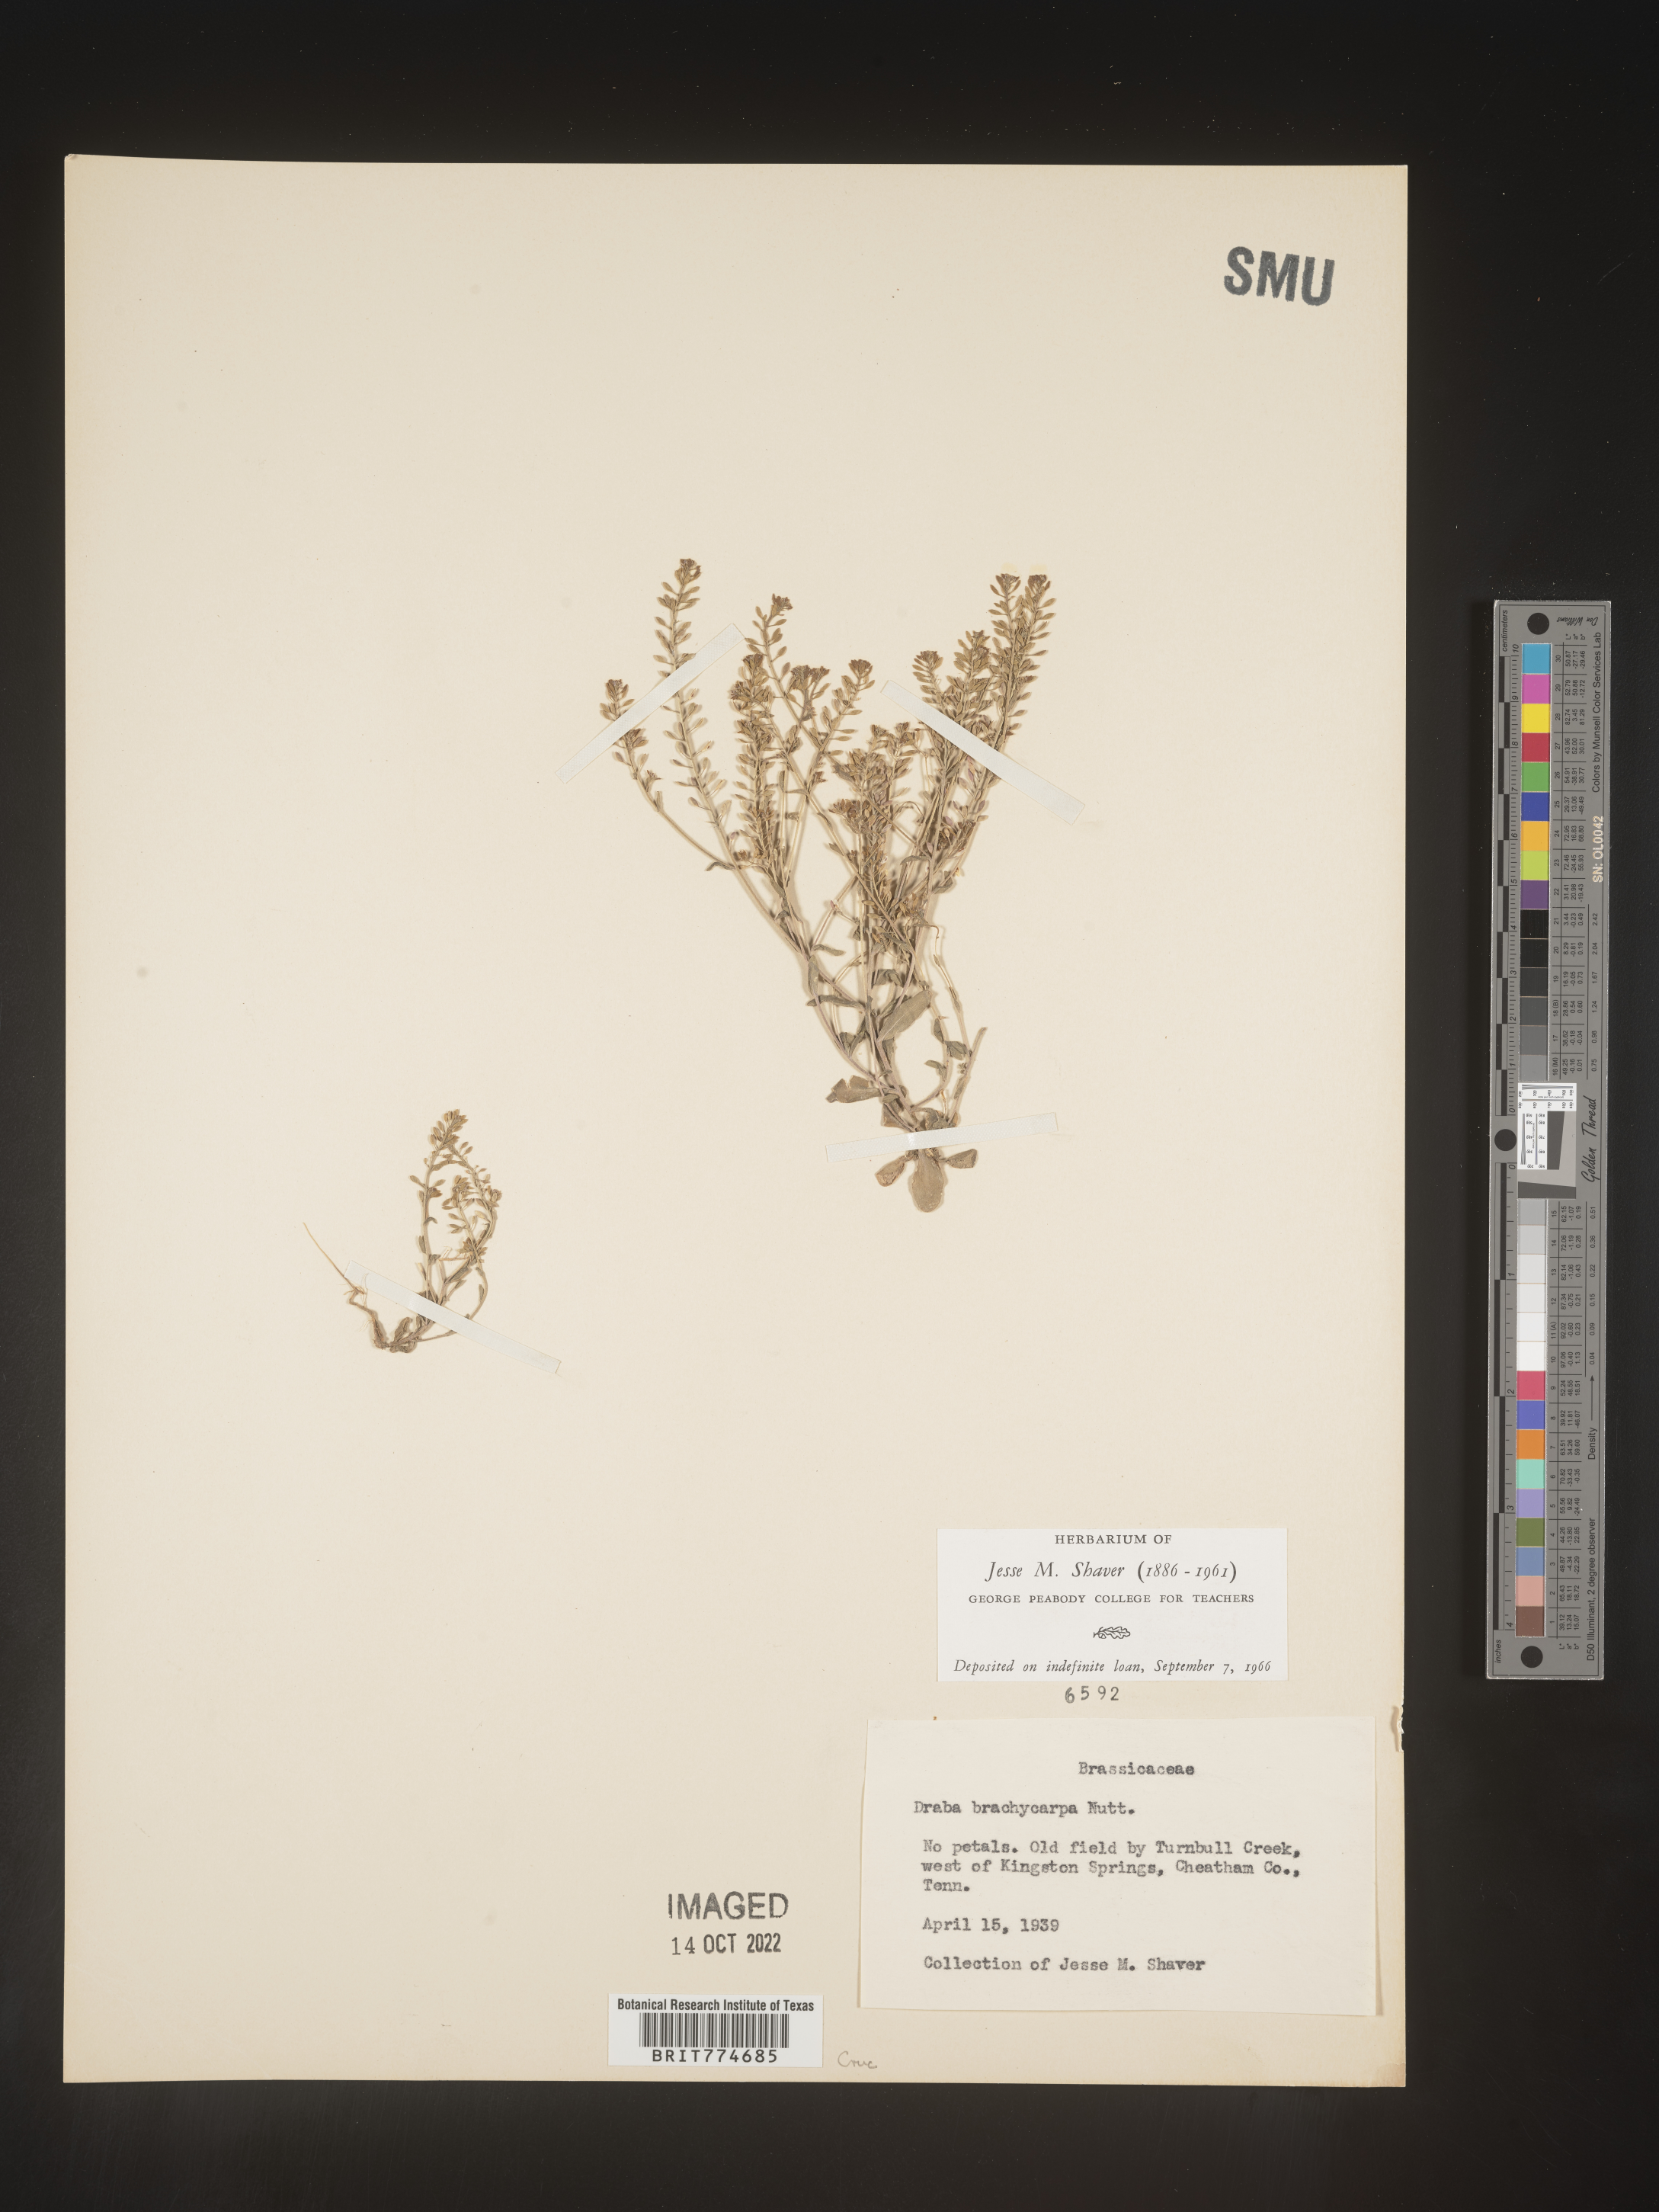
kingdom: Plantae
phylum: Tracheophyta
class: Magnoliopsida
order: Brassicales
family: Brassicaceae
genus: Abdra
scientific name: Abdra brachycarpa
